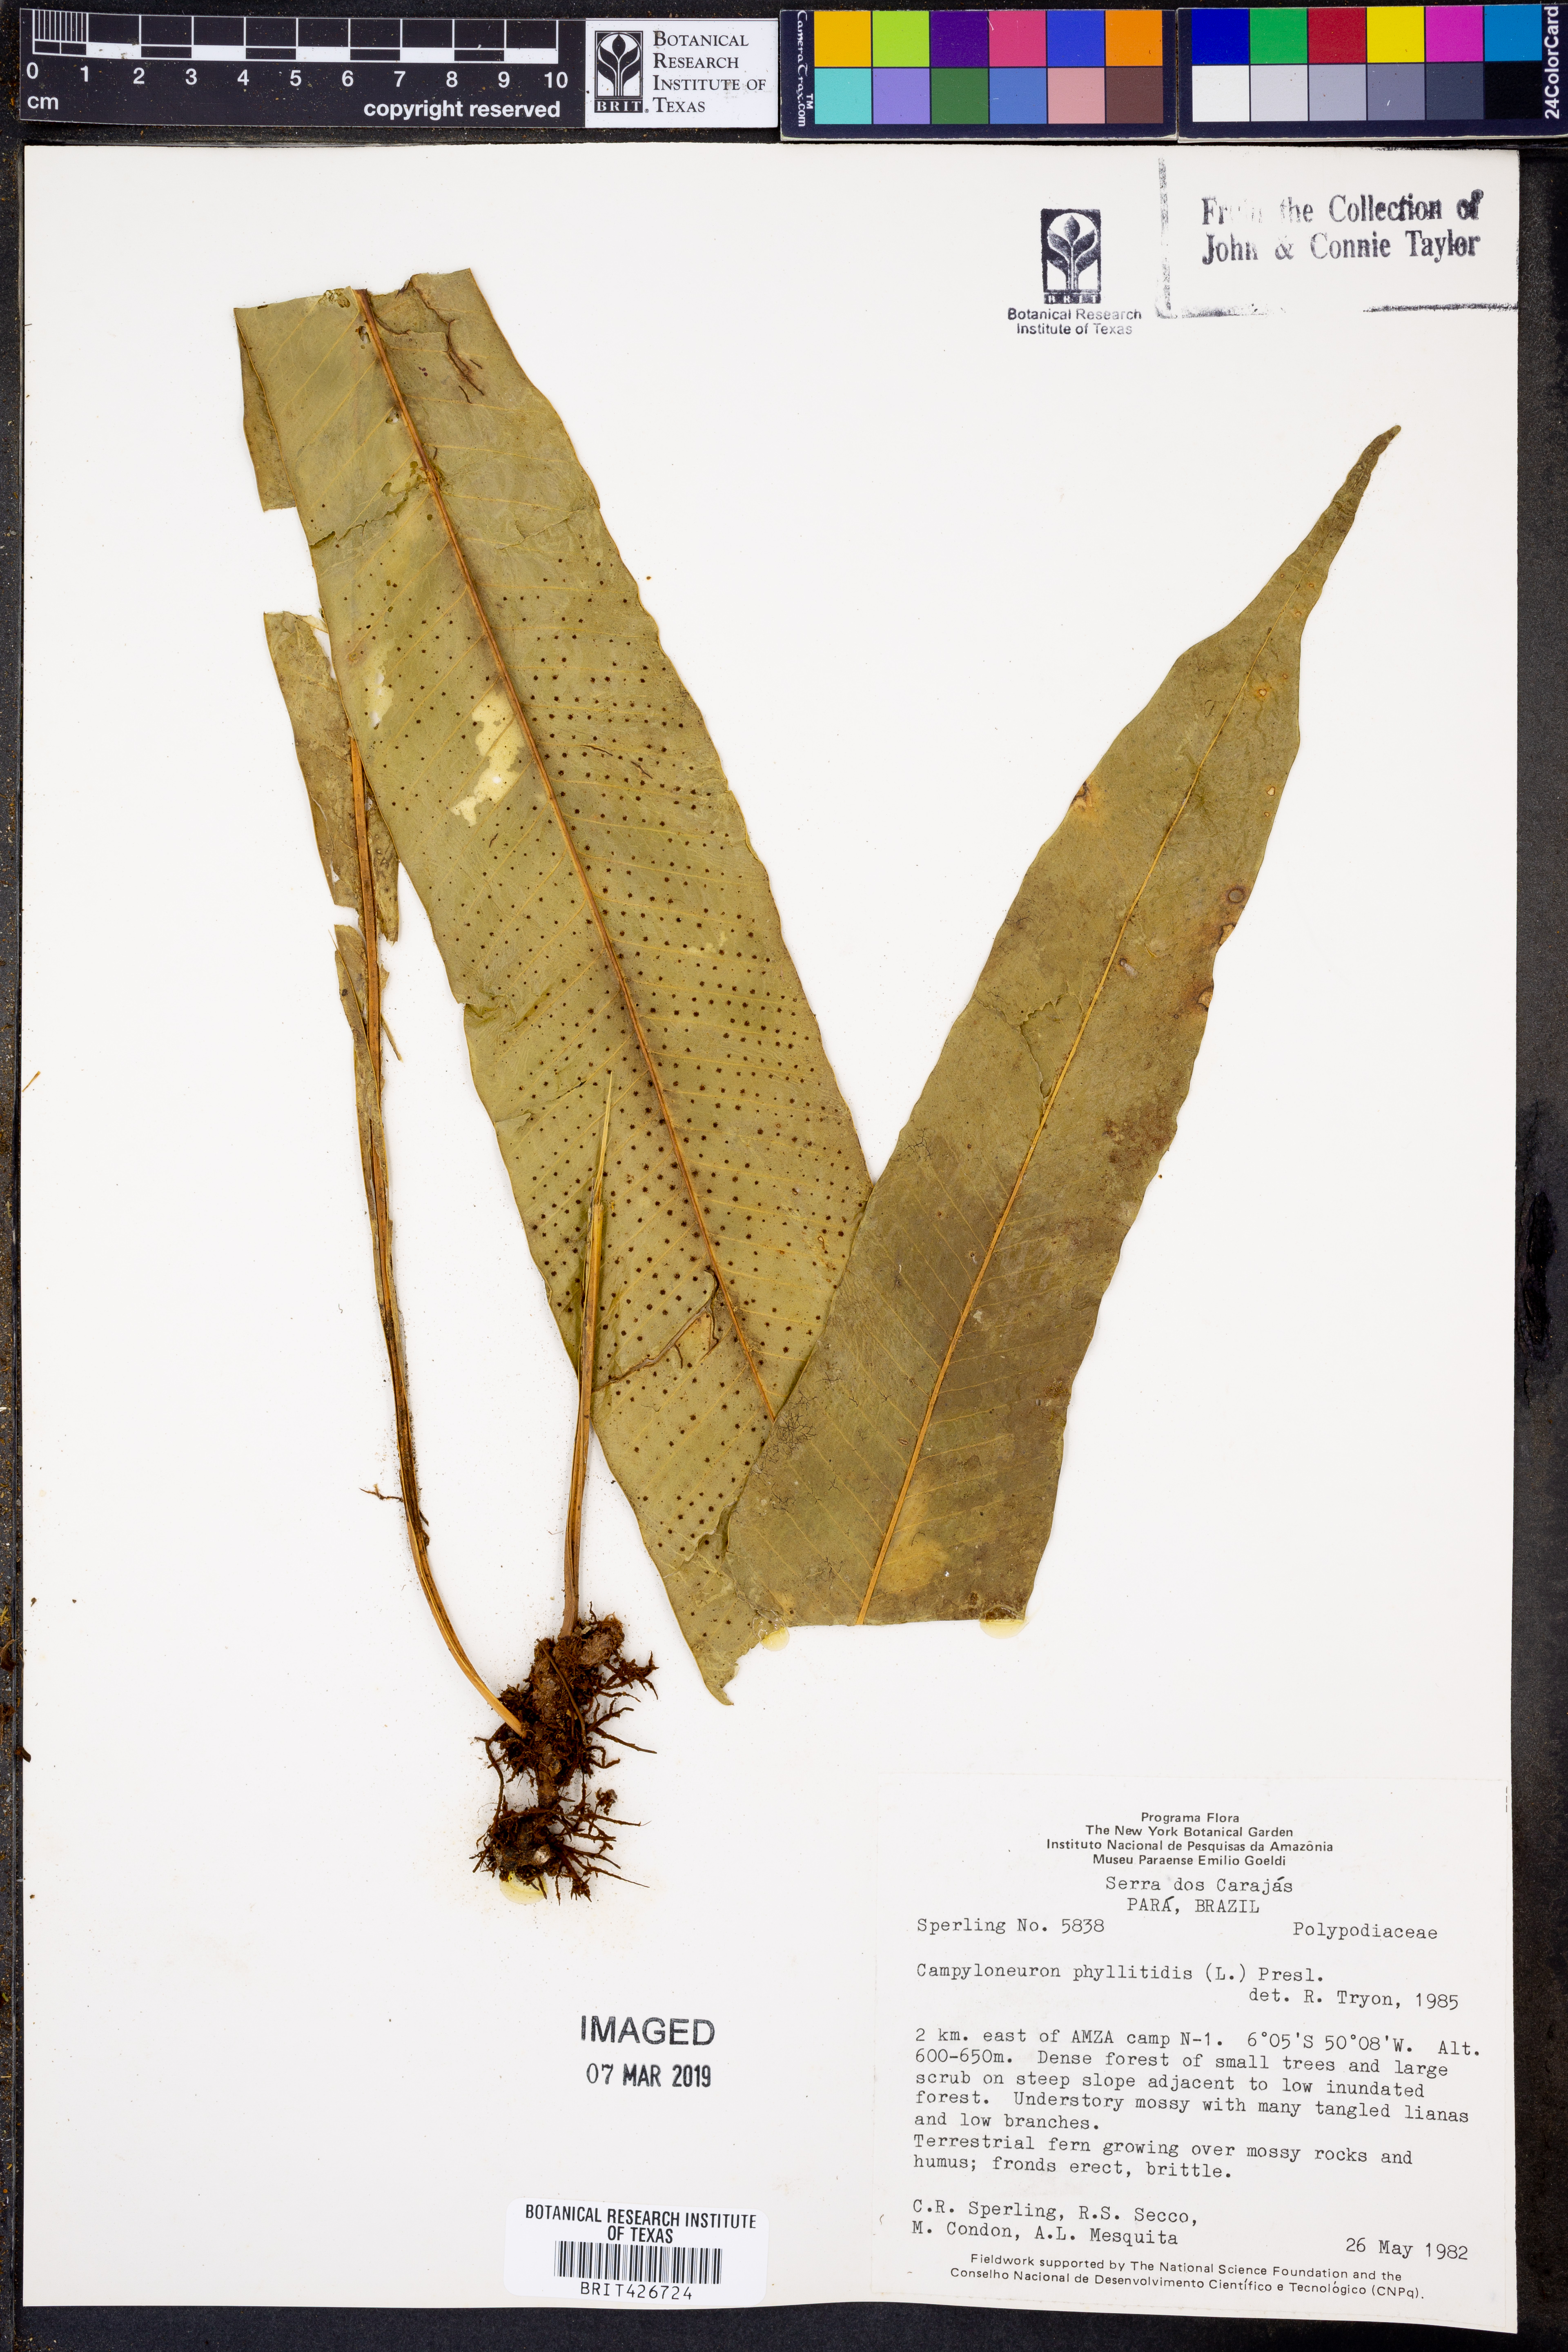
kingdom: Plantae
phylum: Tracheophyta
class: Polypodiopsida
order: Polypodiales
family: Polypodiaceae
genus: Campyloneurum
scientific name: Campyloneurum phyllitidis
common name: Cow-tongue fern
